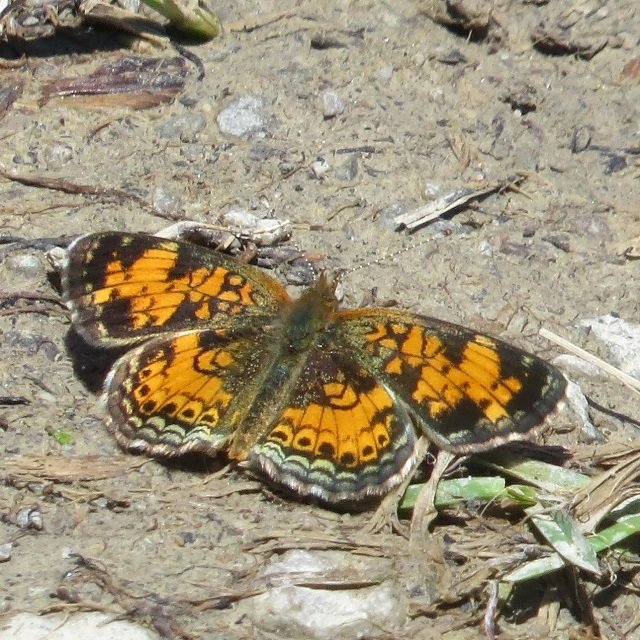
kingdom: Animalia
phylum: Arthropoda
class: Insecta
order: Lepidoptera
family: Nymphalidae
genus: Phyciodes
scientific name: Phyciodes tharos
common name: Northern Crescent
